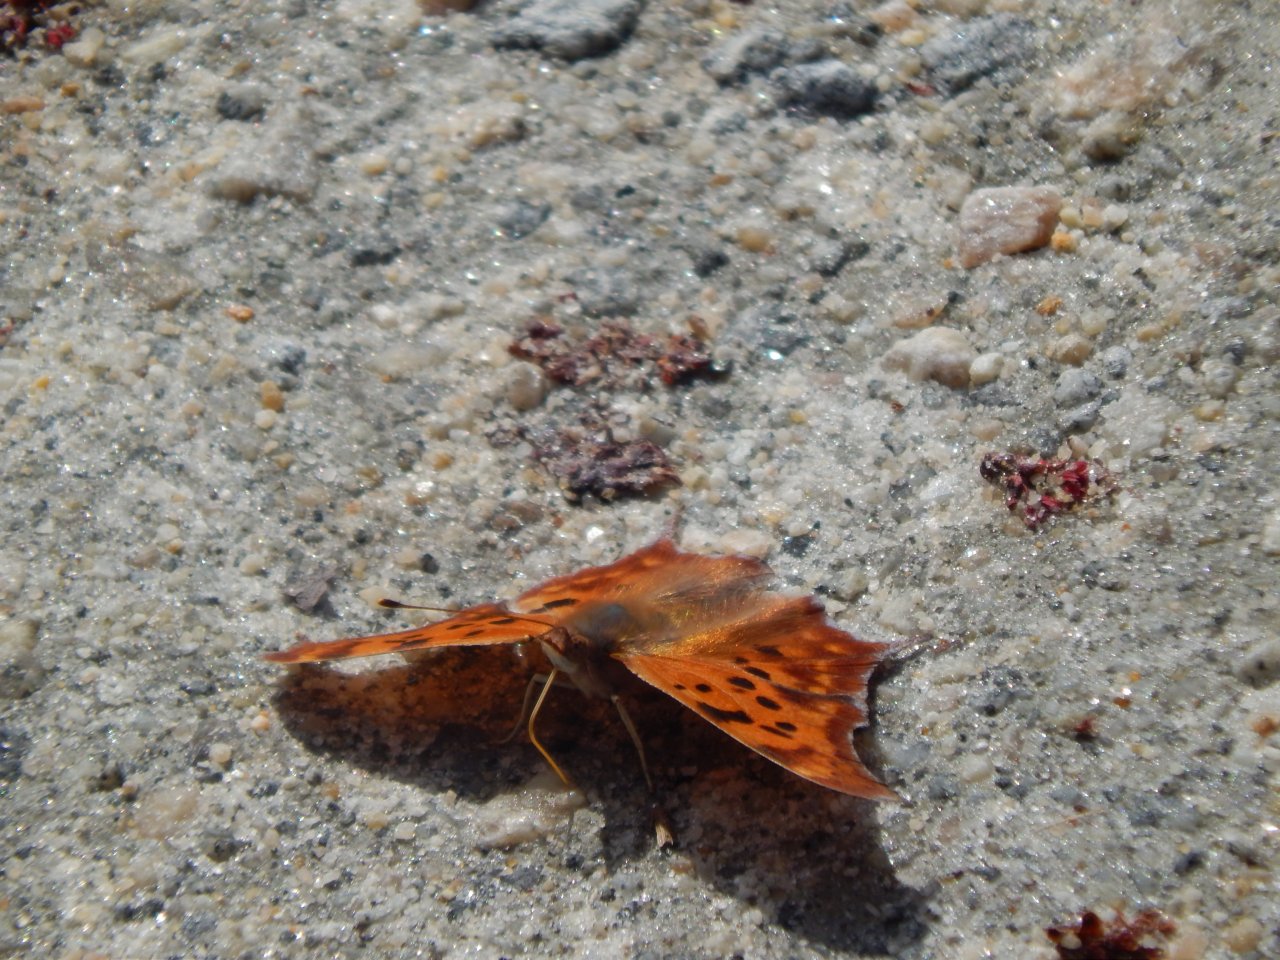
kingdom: Animalia
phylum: Arthropoda
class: Insecta
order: Lepidoptera
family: Nymphalidae
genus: Polygonia
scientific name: Polygonia interrogationis
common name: Question Mark
